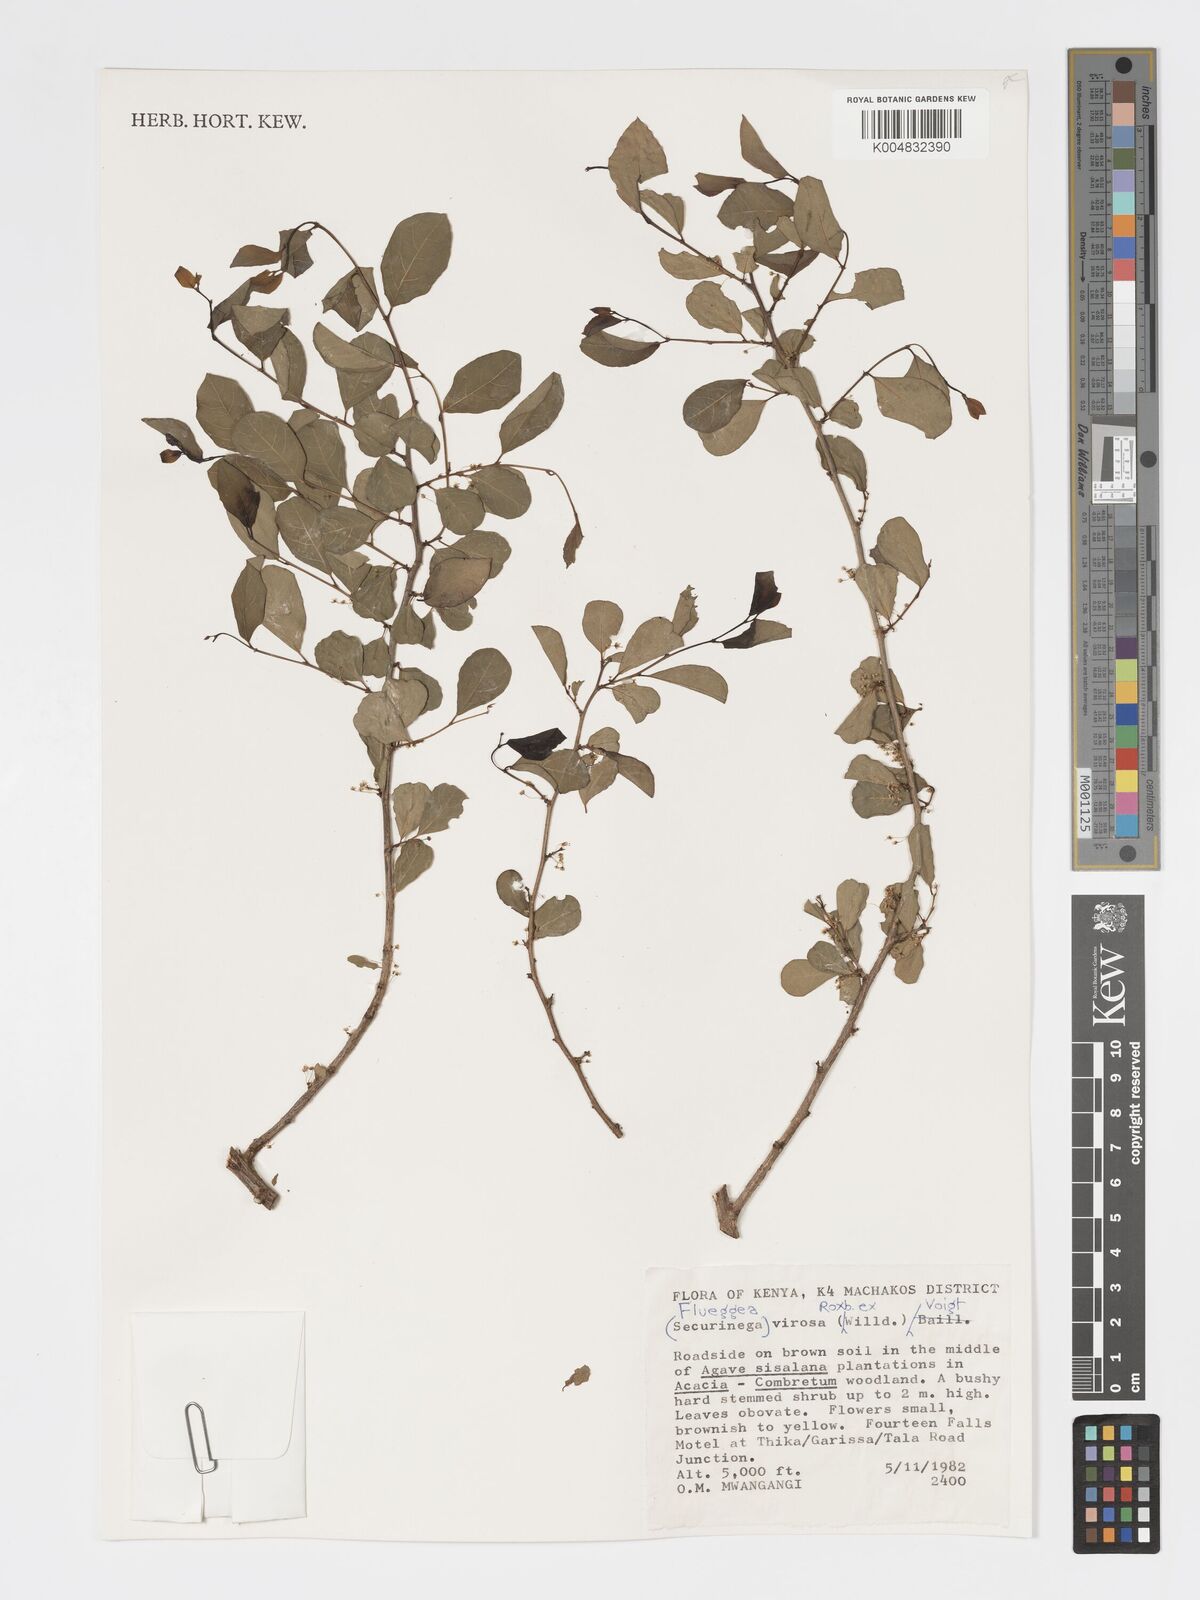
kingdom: Plantae
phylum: Tracheophyta
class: Magnoliopsida
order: Malpighiales
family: Phyllanthaceae
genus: Flueggea
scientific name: Flueggea virosa
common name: Common bushweed
